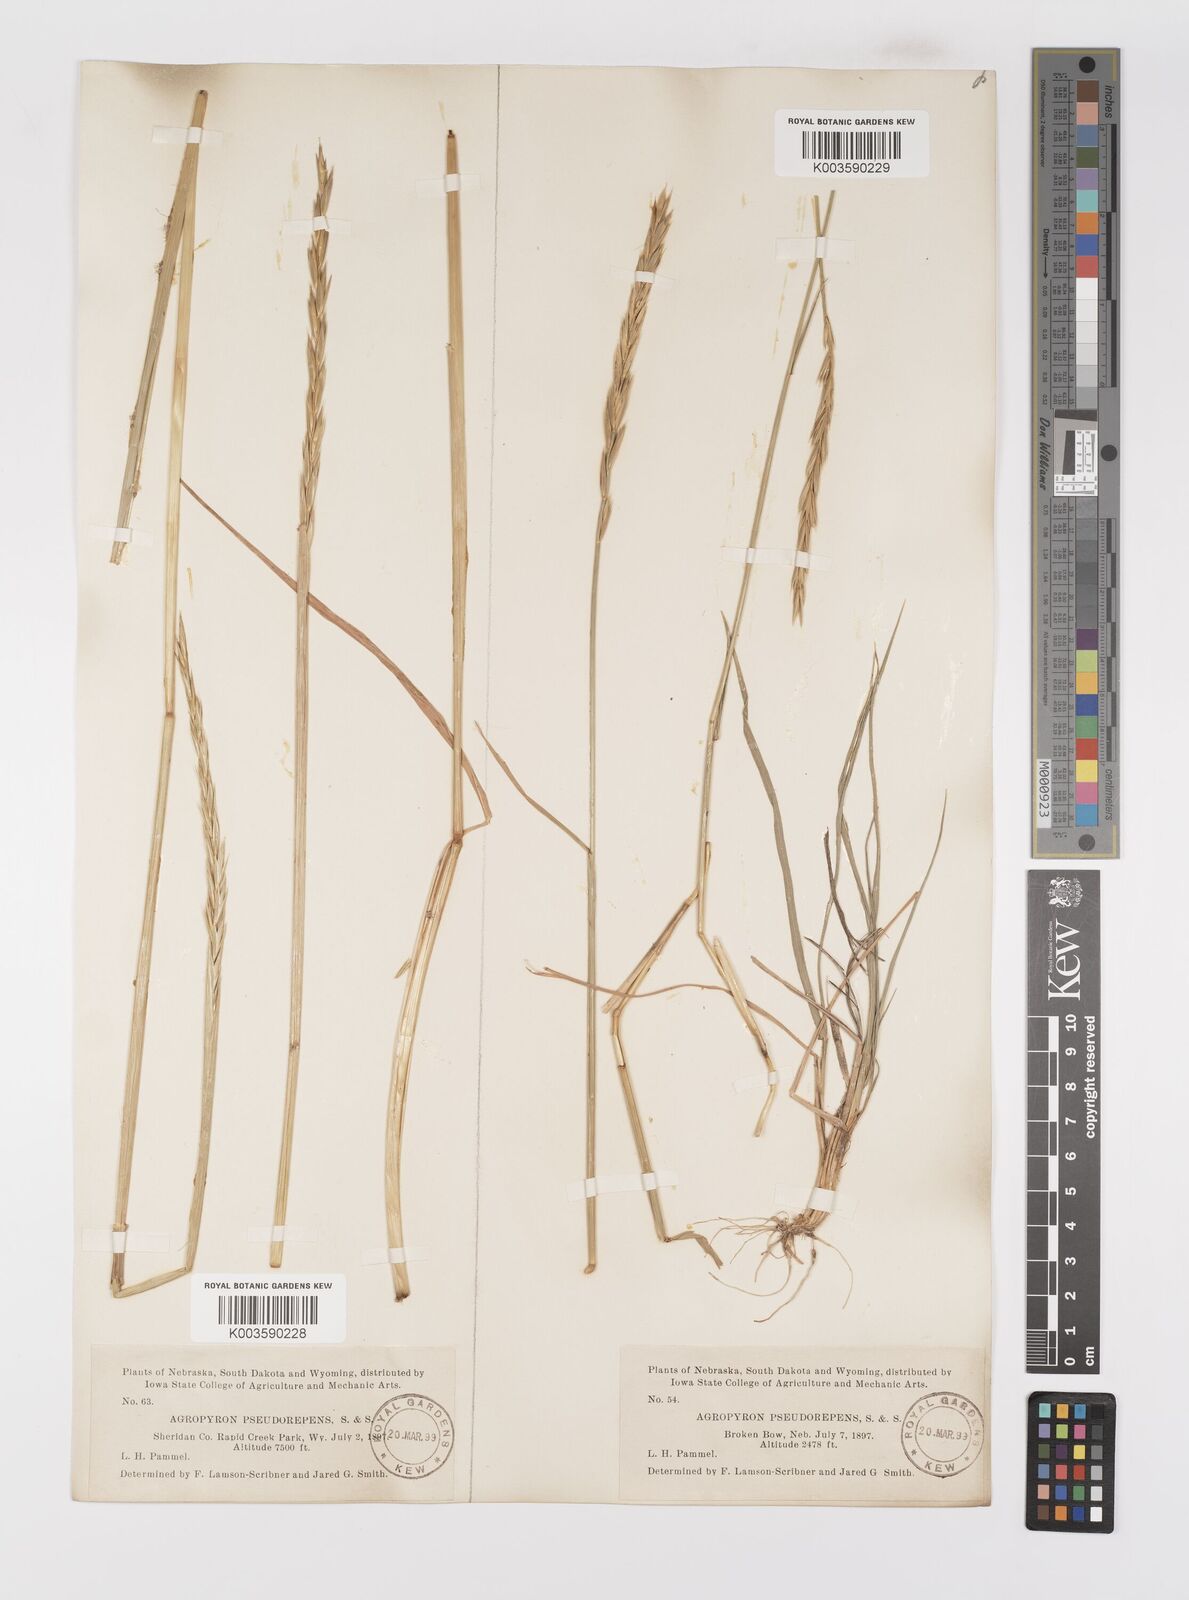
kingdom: Plantae
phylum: Tracheophyta
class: Liliopsida
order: Poales
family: Poaceae
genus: Elymus
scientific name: Elymus violaceus
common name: Arctic wheatgrass
